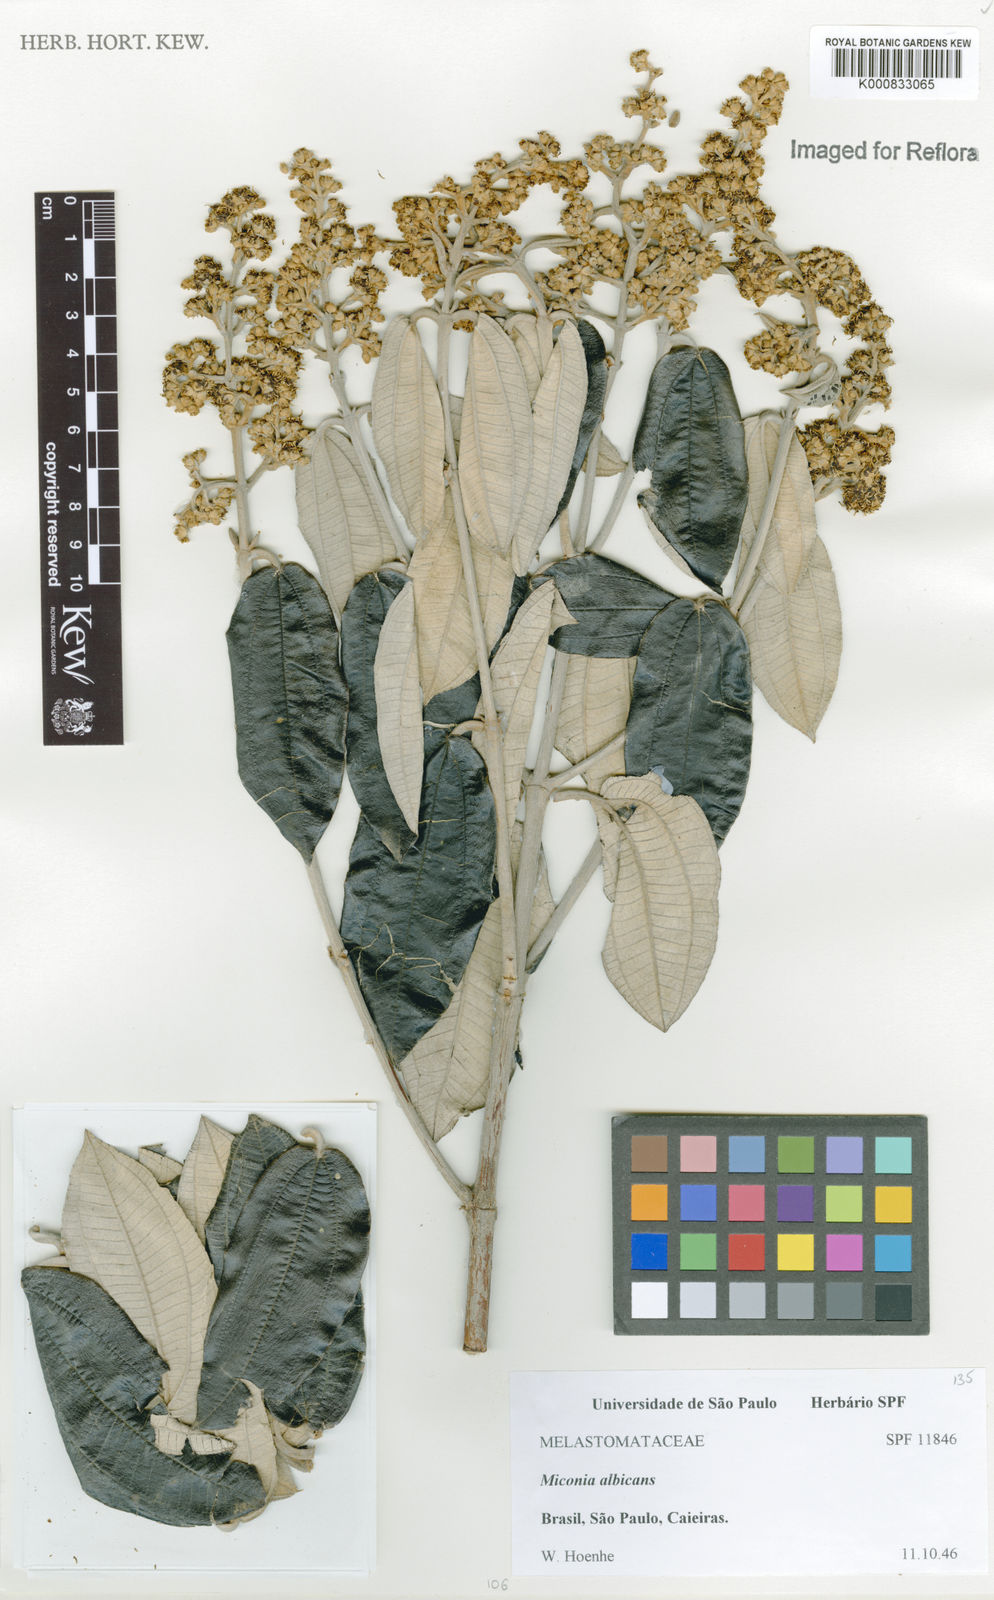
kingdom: Plantae
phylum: Tracheophyta
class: Magnoliopsida
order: Myrtales
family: Melastomataceae
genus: Miconia
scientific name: Miconia albicans
